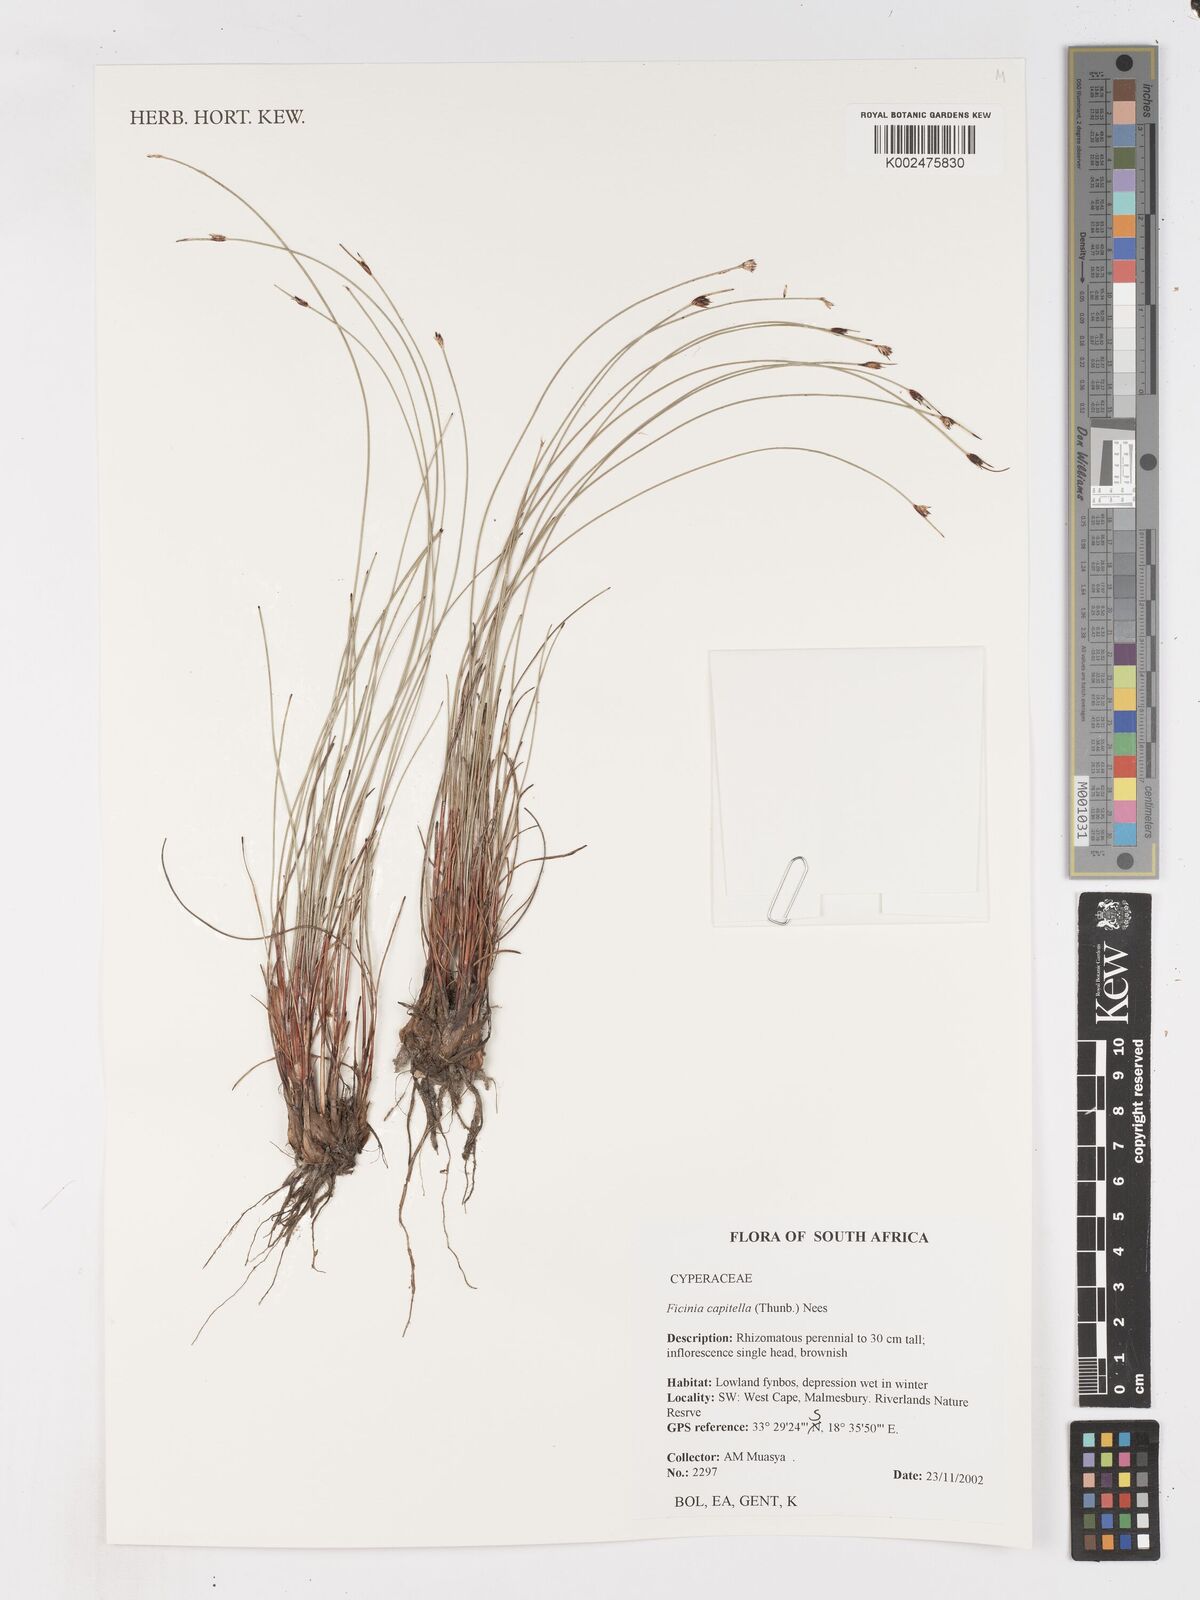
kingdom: Plantae
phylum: Tracheophyta
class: Liliopsida
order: Poales
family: Cyperaceae
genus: Ficinia
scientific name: Ficinia capitella
